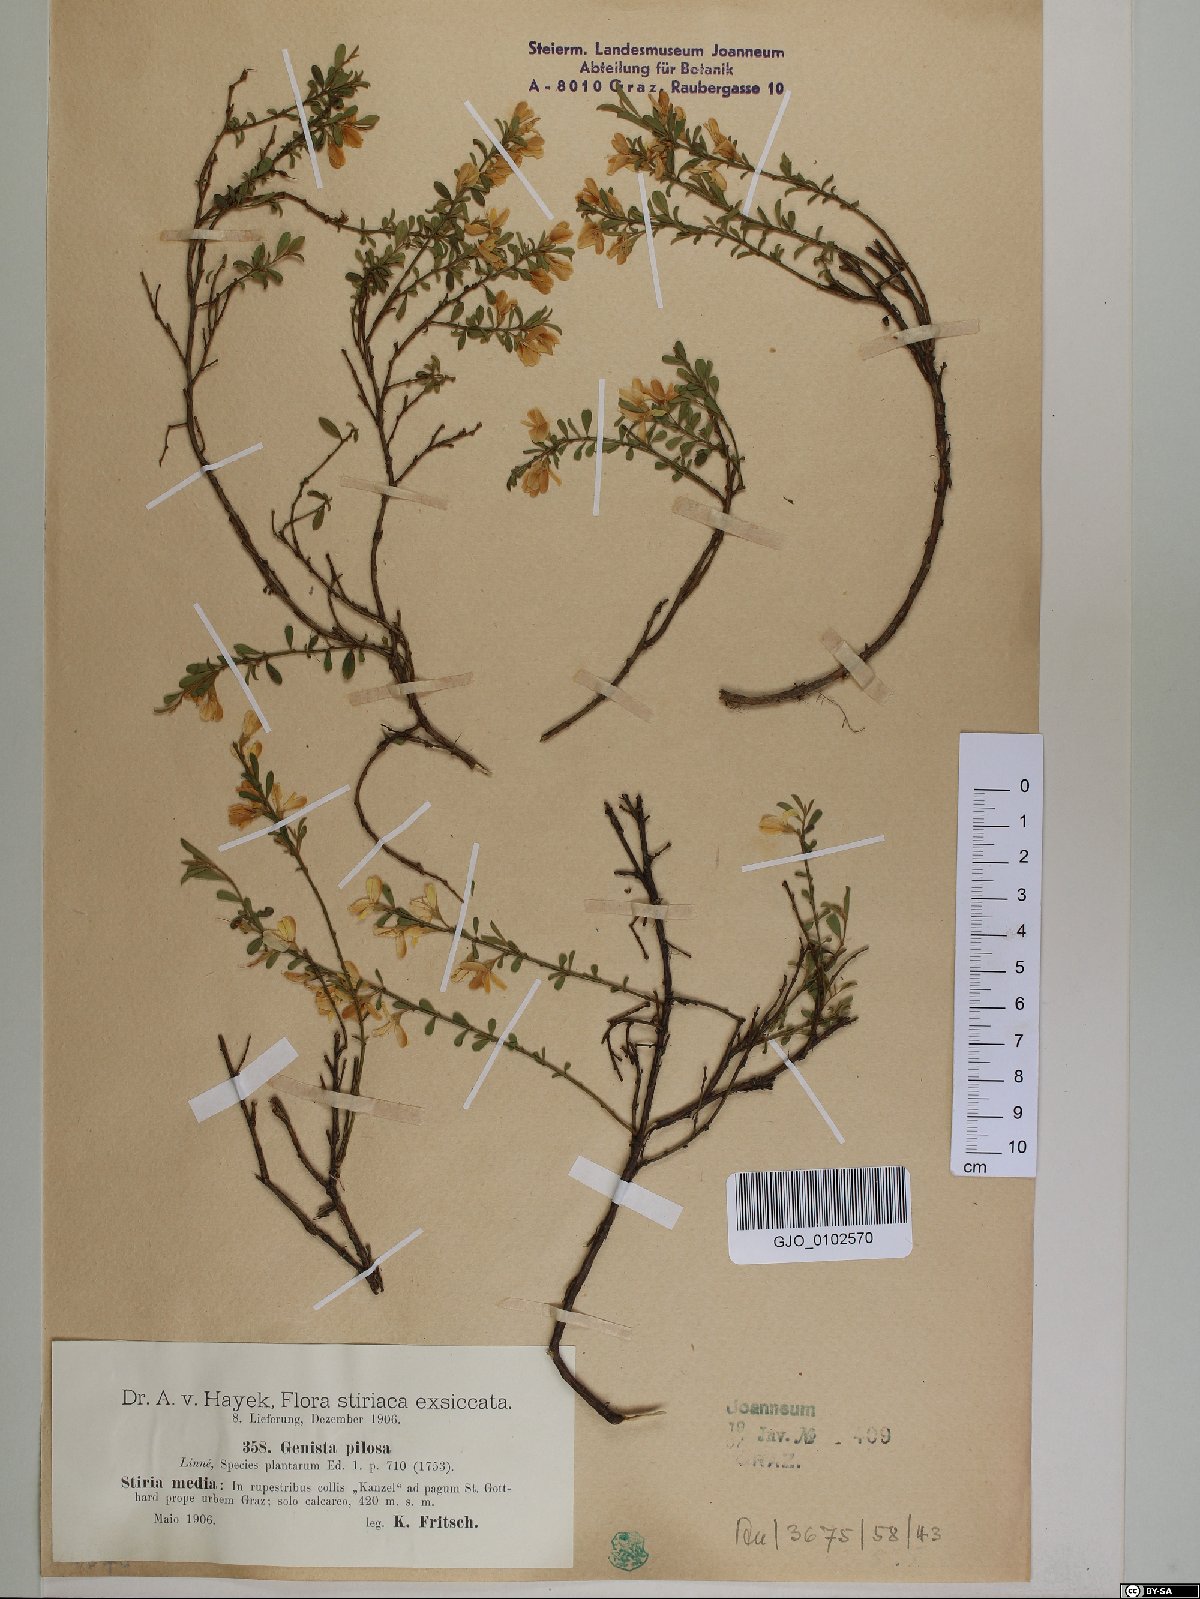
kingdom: Plantae
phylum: Tracheophyta
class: Magnoliopsida
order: Fabales
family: Fabaceae
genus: Genista
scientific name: Genista pilosa
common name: Hairy greenweed
